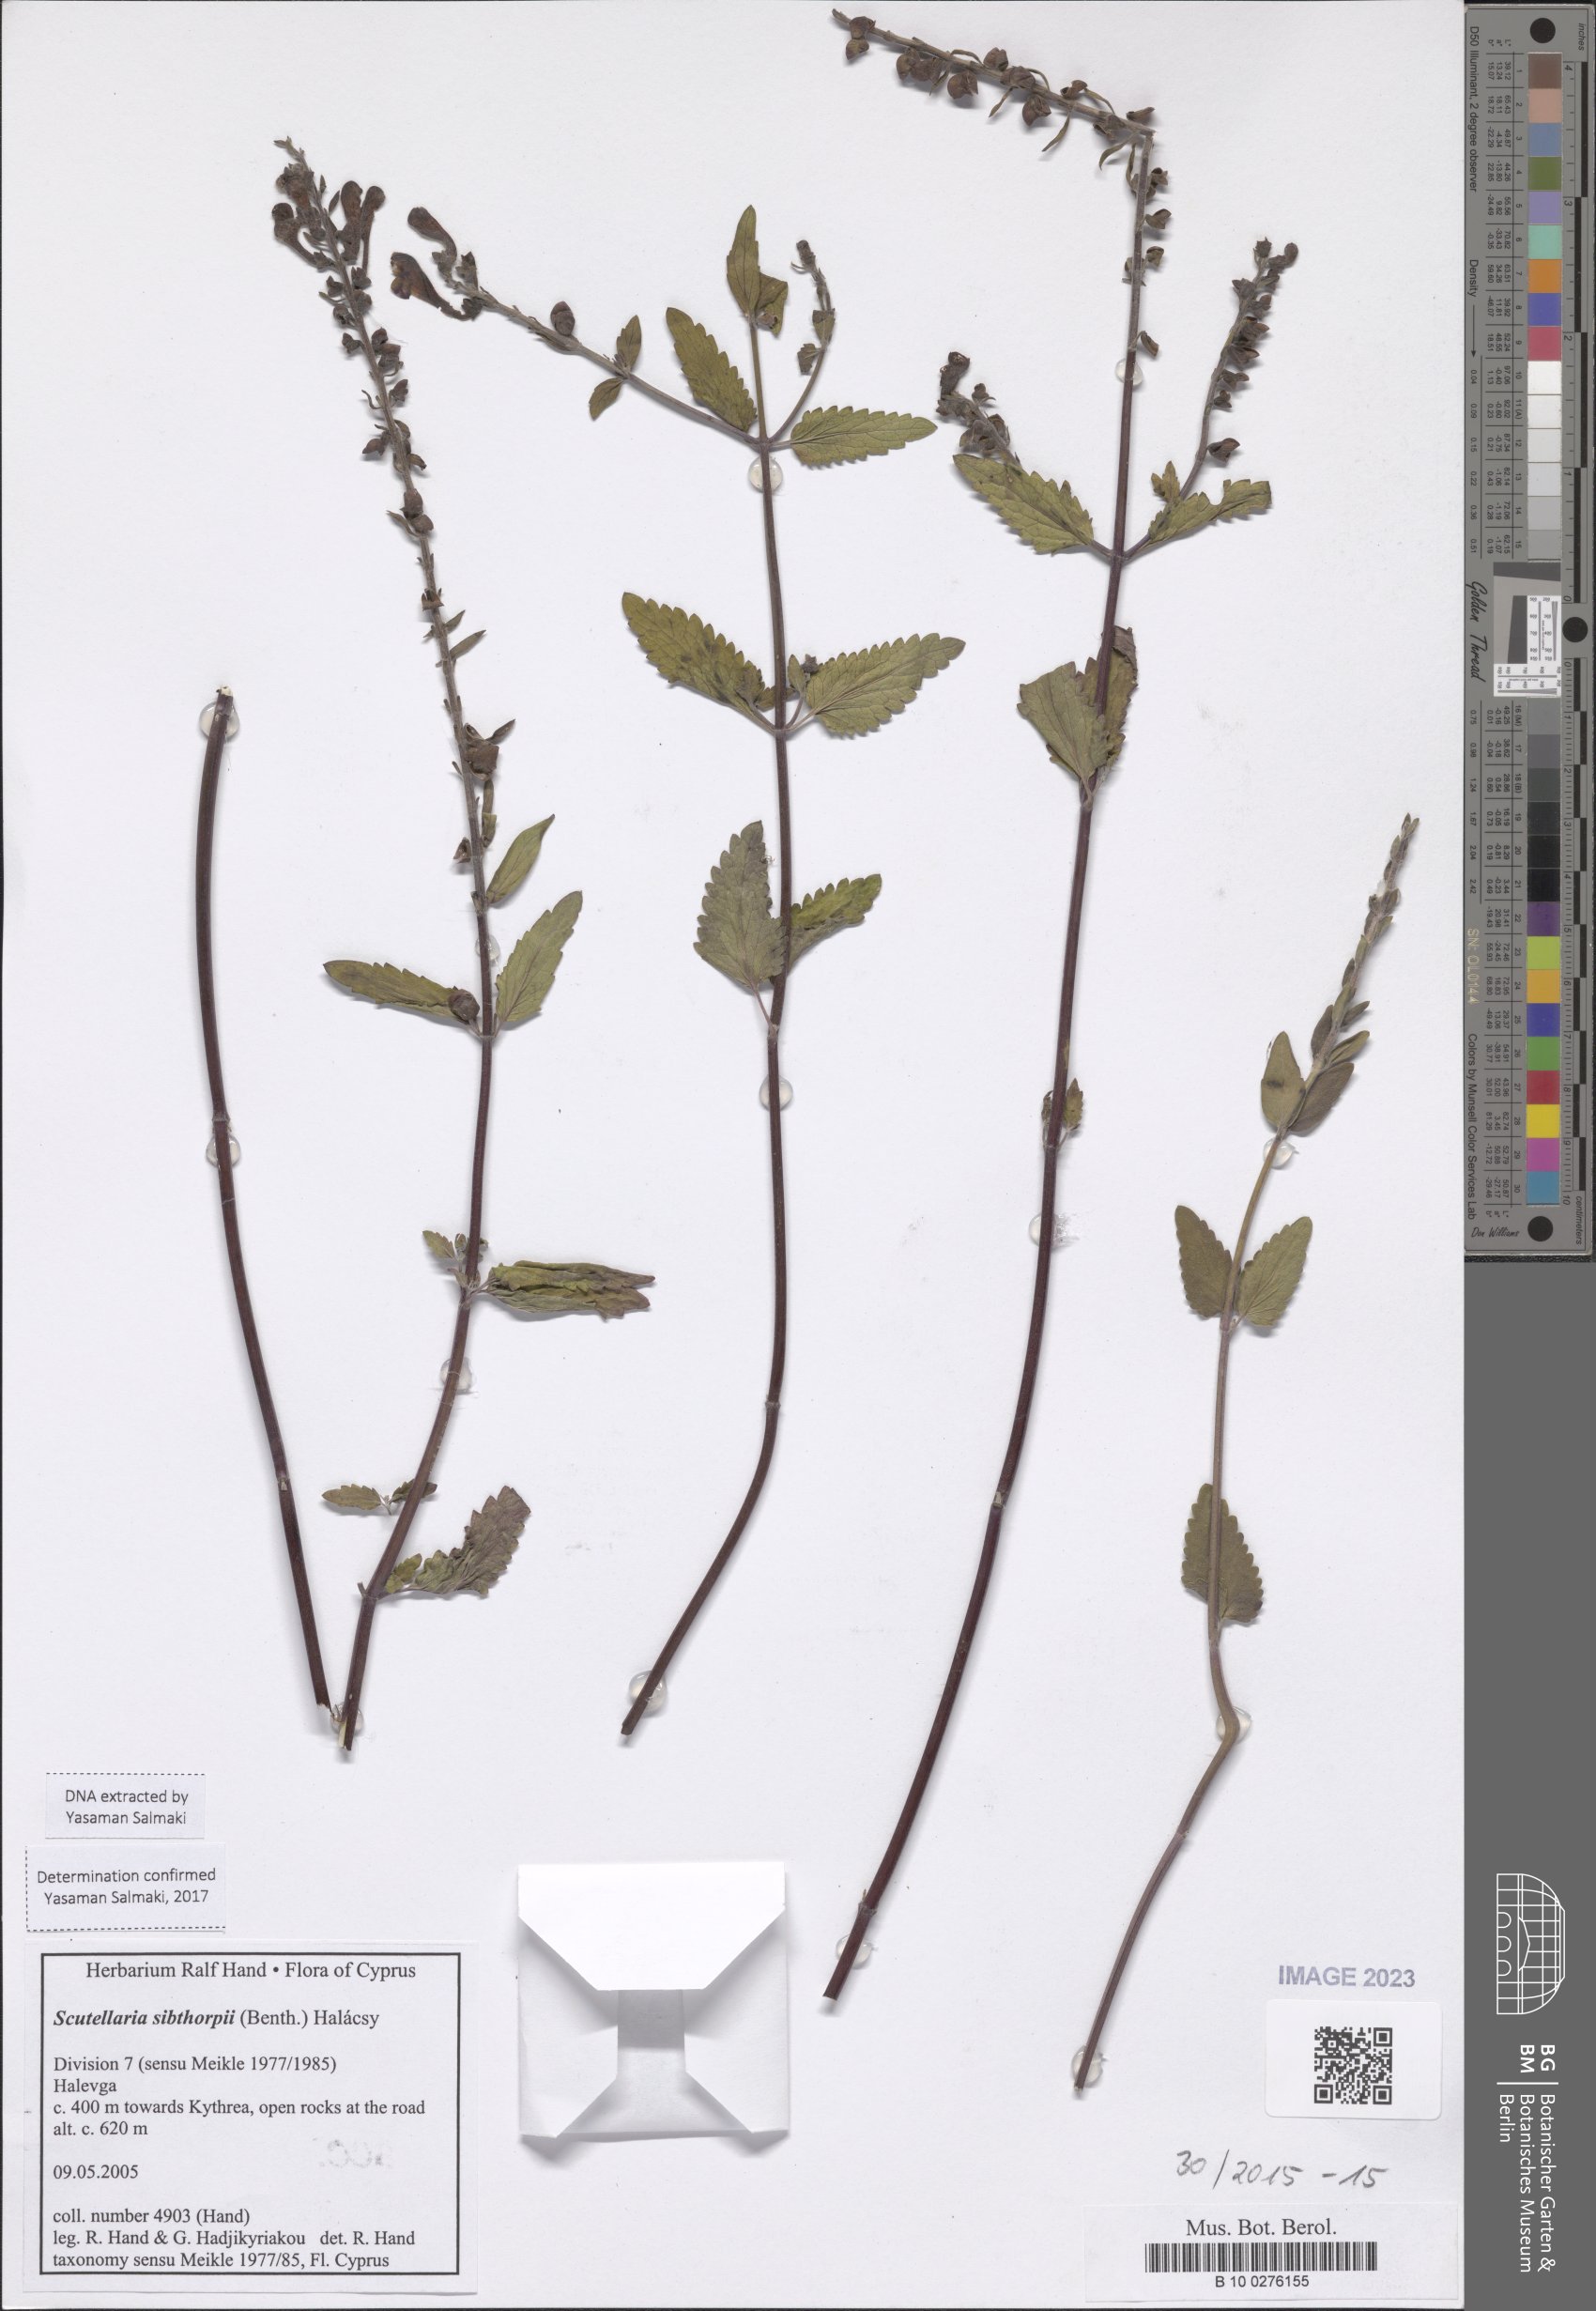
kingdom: Plantae
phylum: Tracheophyta
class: Magnoliopsida
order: Lamiales
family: Lamiaceae
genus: Scutellaria
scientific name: Scutellaria sibthorpii
